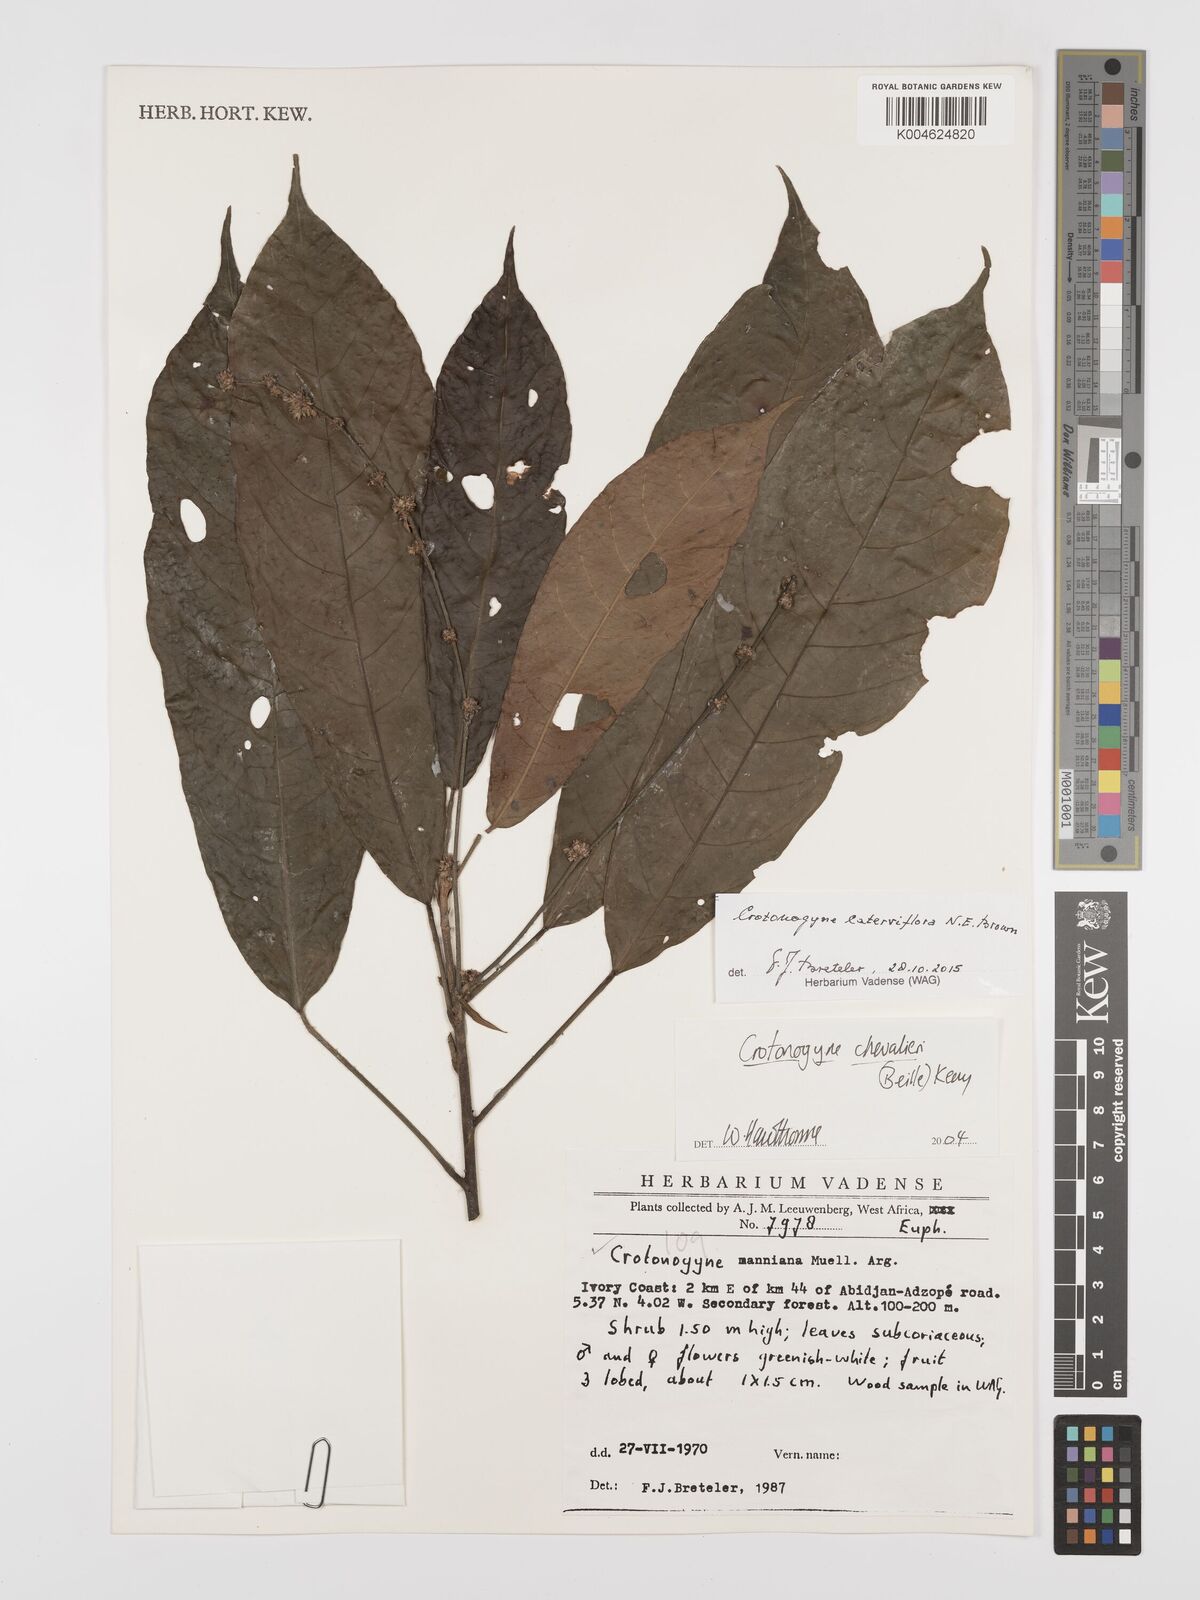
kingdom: Plantae
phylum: Tracheophyta
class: Magnoliopsida
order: Malpighiales
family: Euphorbiaceae
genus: Crotonogyne
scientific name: Crotonogyne caterviflora
